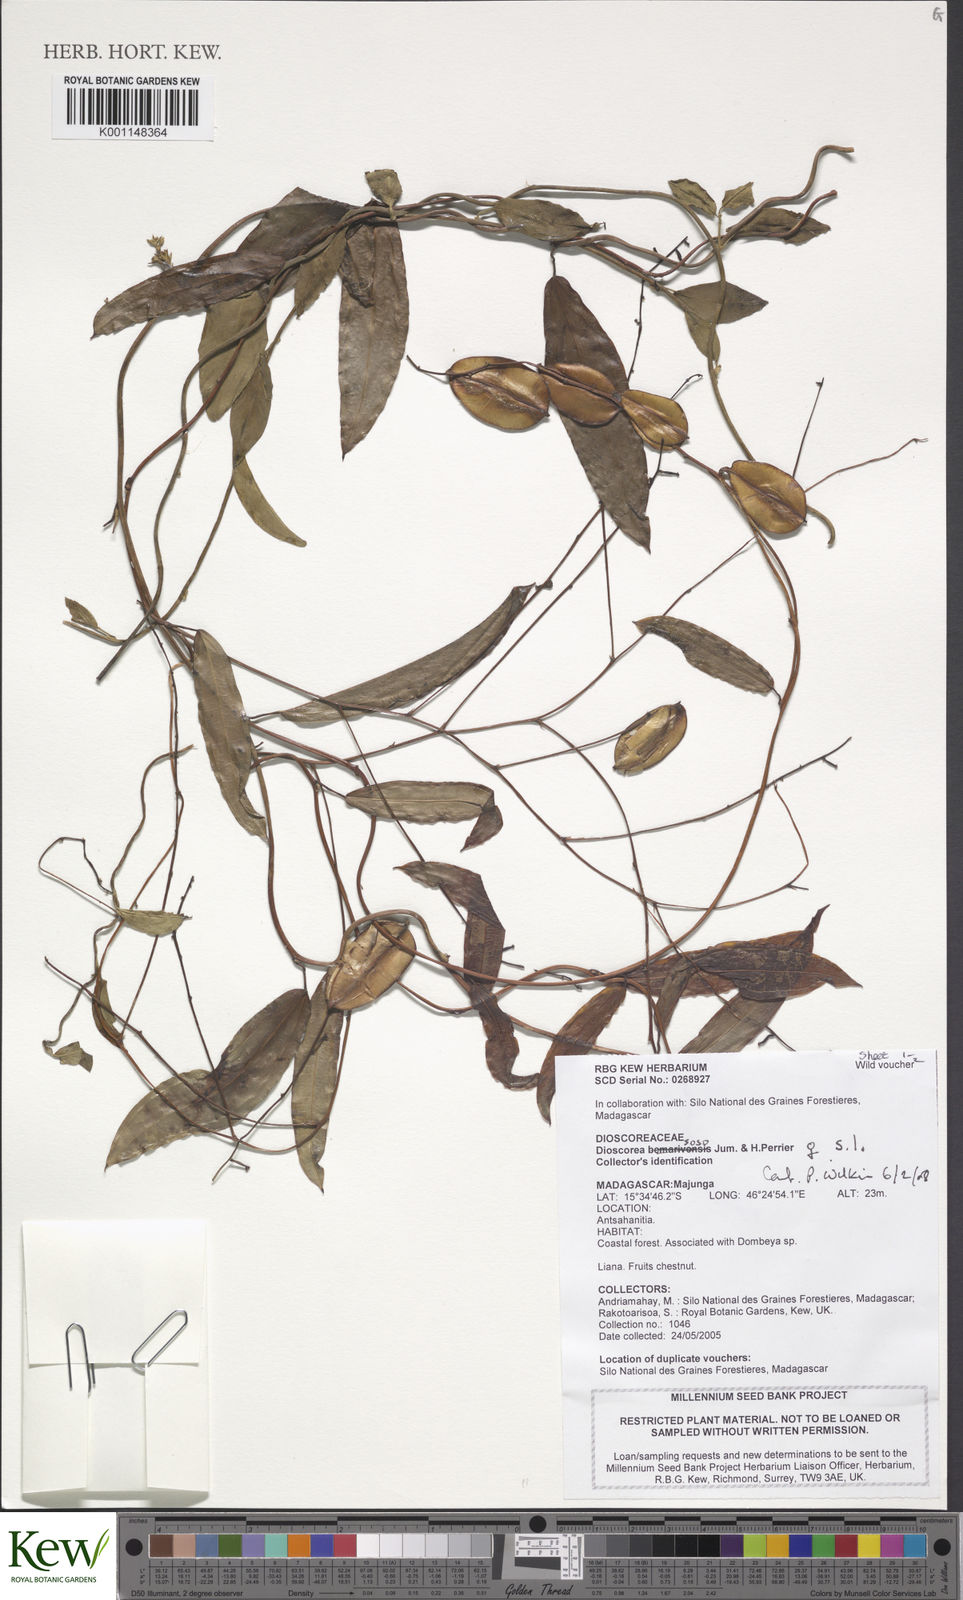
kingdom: Plantae
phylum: Tracheophyta
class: Liliopsida
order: Dioscoreales
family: Dioscoreaceae
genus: Dioscorea
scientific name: Dioscorea soso
